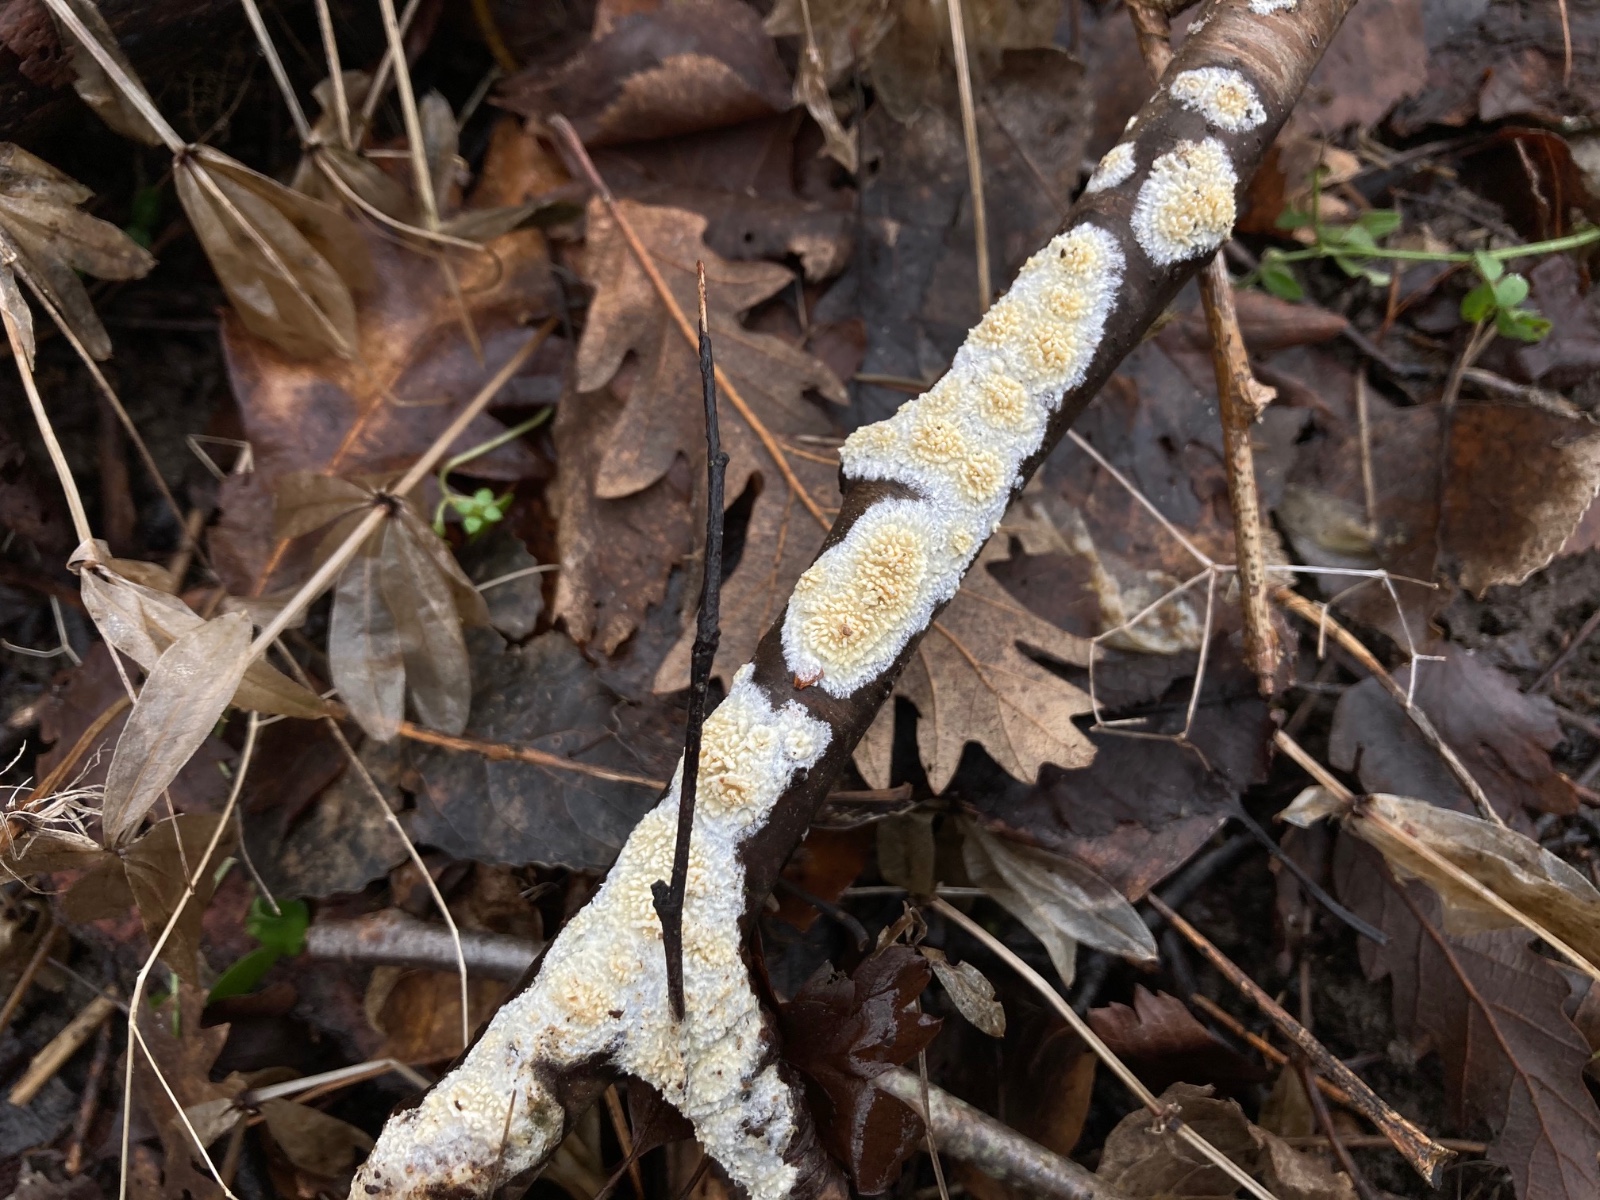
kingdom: Fungi
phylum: Basidiomycota
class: Agaricomycetes
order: Hymenochaetales
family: Schizoporaceae
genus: Xylodon
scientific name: Xylodon radula
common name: grovtandet kalkskind
